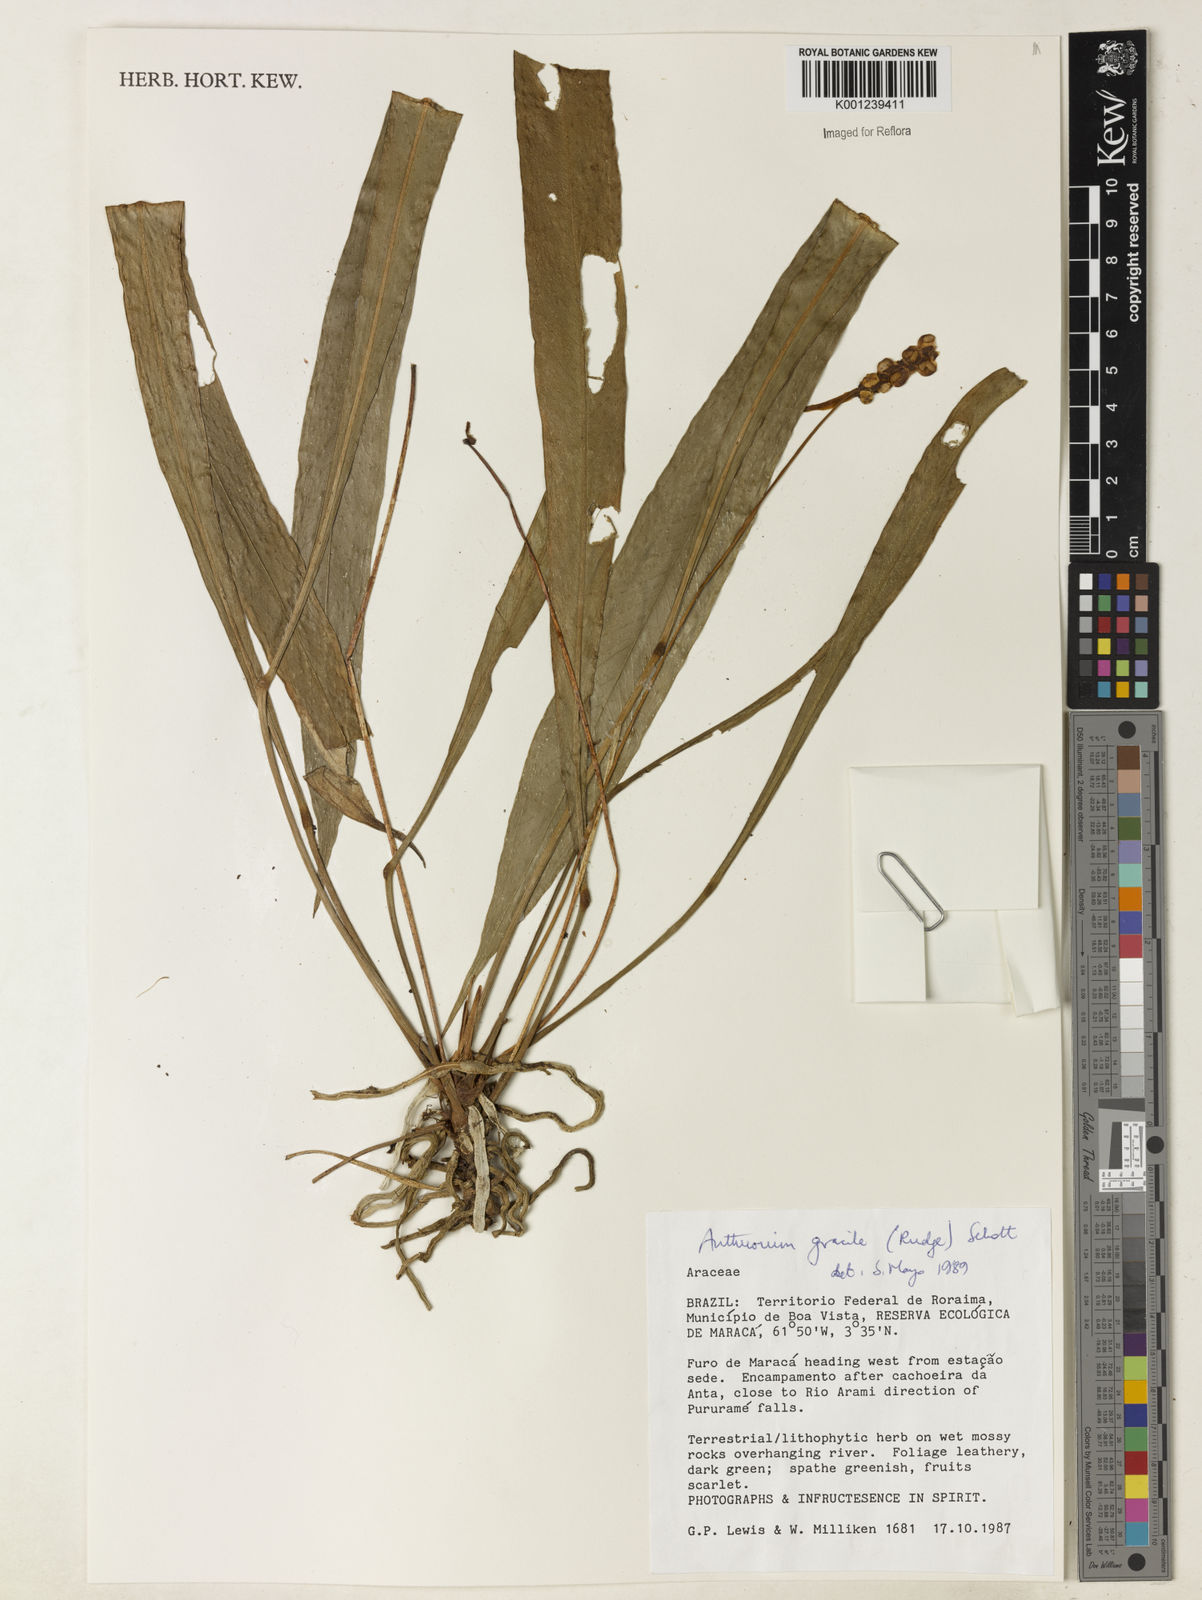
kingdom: Plantae
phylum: Tracheophyta
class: Liliopsida
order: Alismatales
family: Araceae
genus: Anthurium
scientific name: Anthurium gracile
